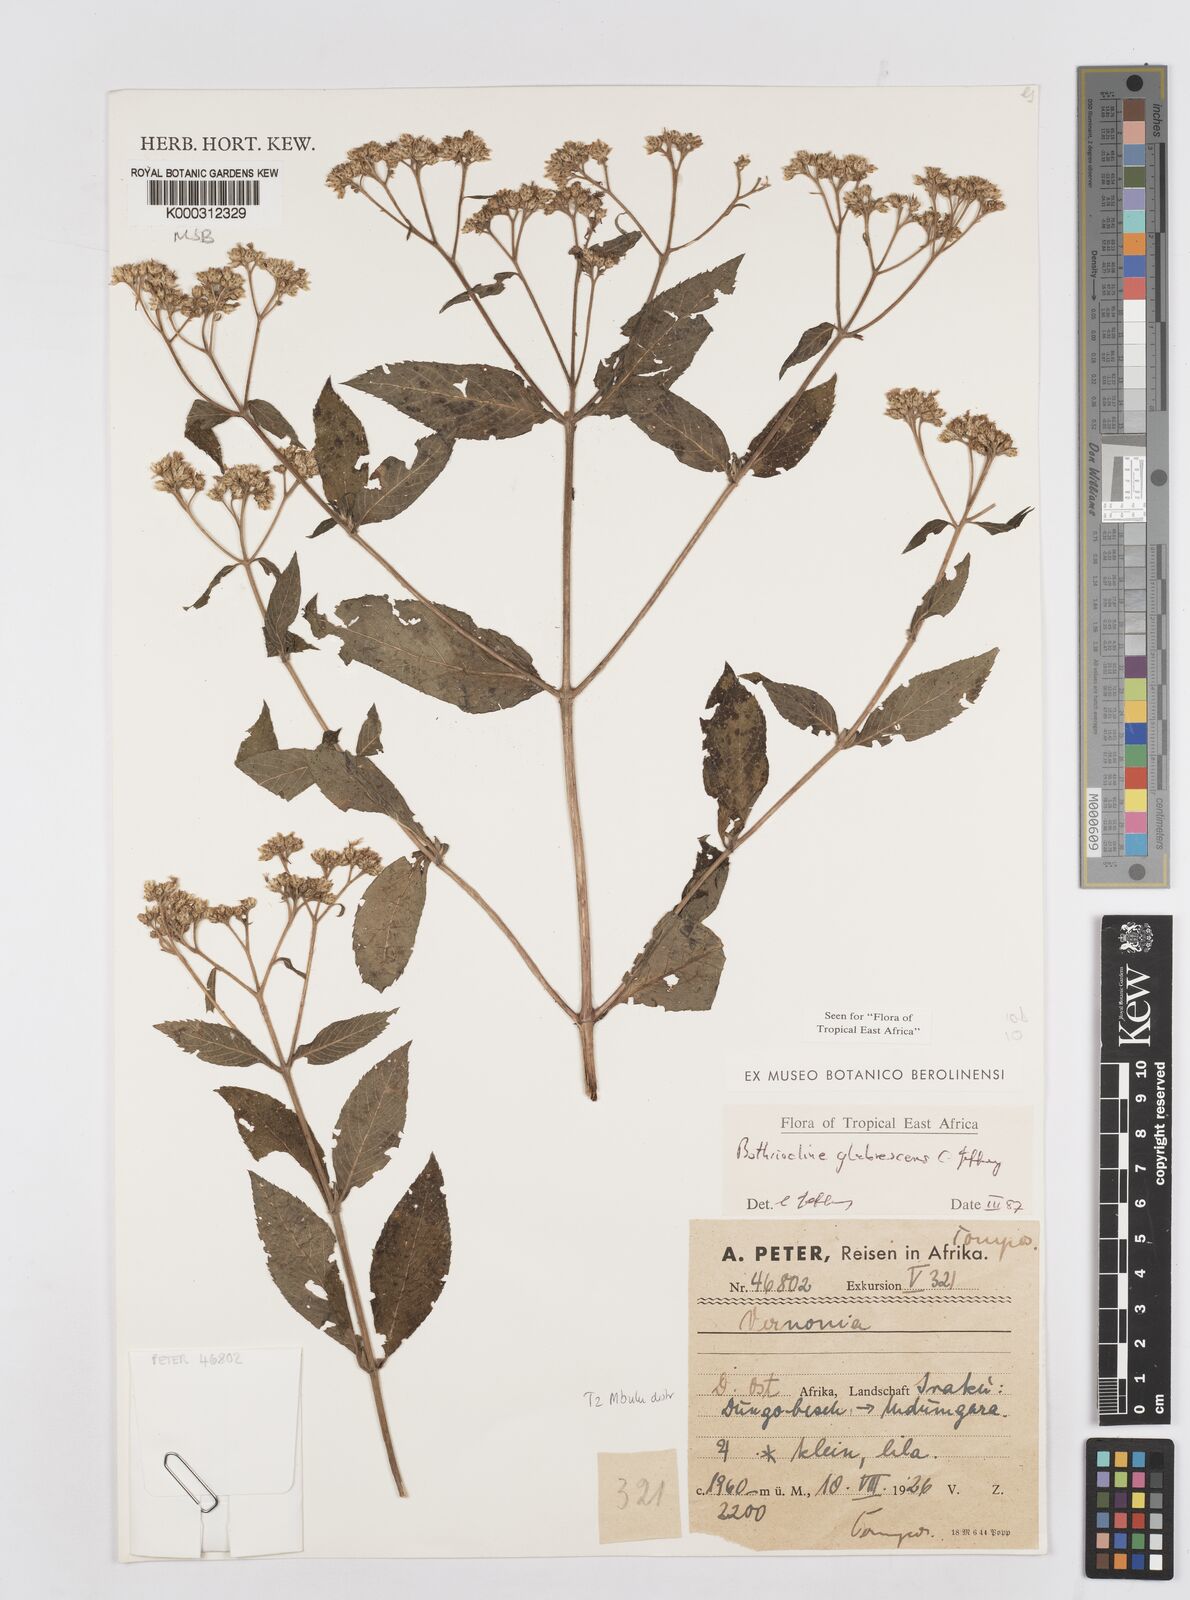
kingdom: Plantae
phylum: Tracheophyta
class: Magnoliopsida
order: Asterales
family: Asteraceae
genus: Bothriocline
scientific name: Bothriocline glabrescens
